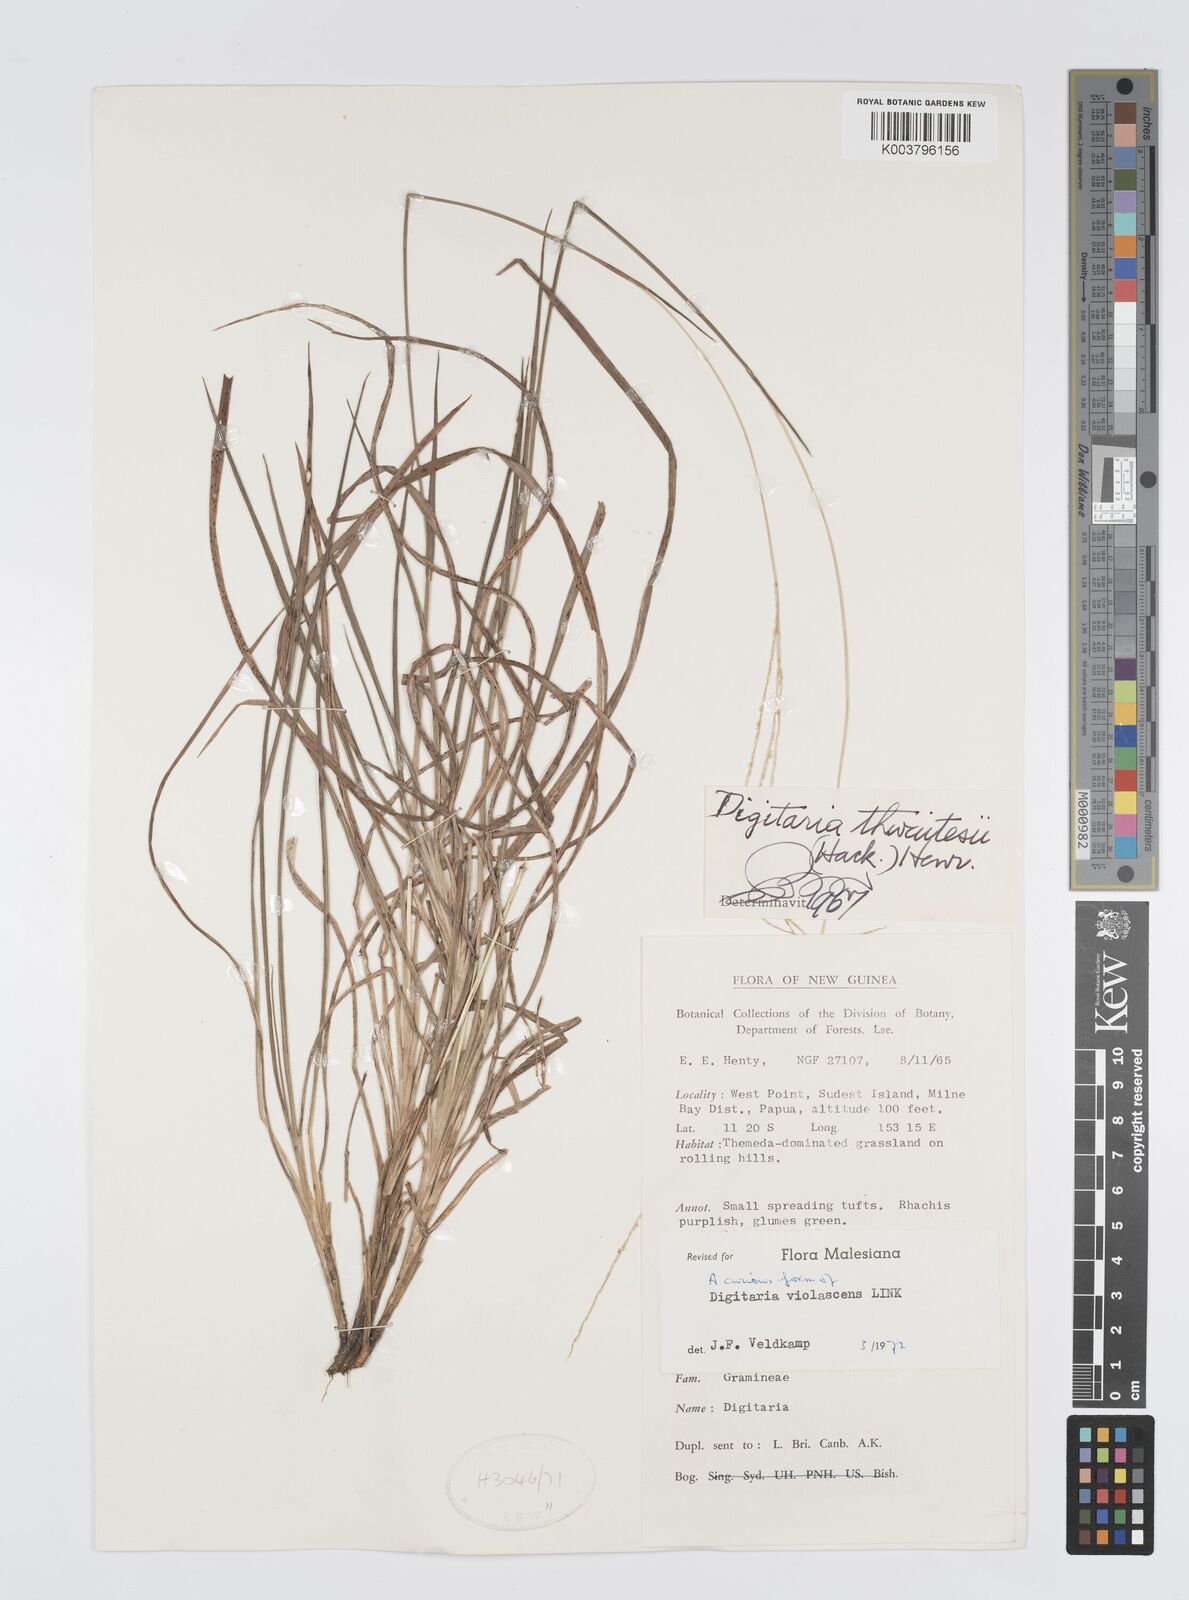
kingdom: Plantae
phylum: Tracheophyta
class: Liliopsida
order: Poales
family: Poaceae
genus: Digitaria
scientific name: Digitaria violascens
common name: Violet crabgrass
